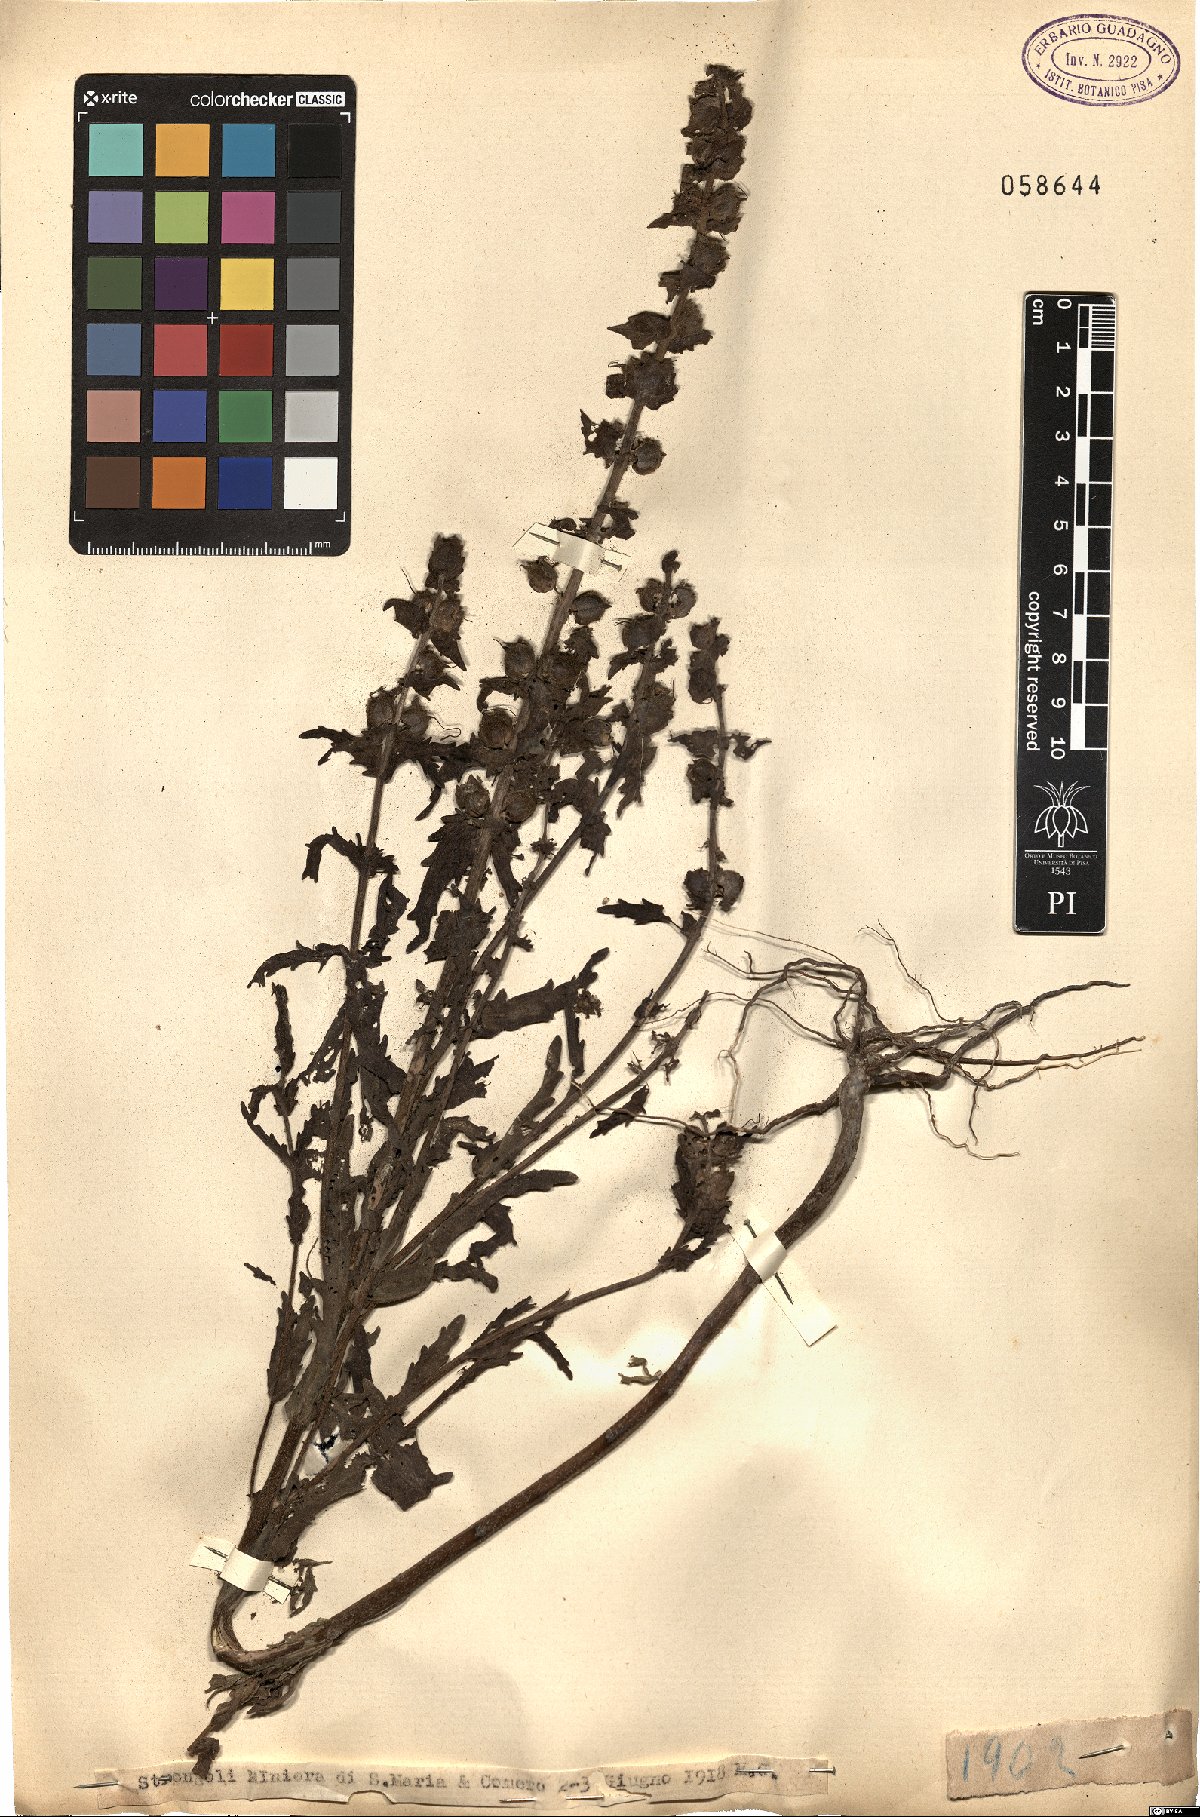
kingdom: Plantae
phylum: Tracheophyta
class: Magnoliopsida
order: Lamiales
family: Orobanchaceae
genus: Bartsia
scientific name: Bartsia
